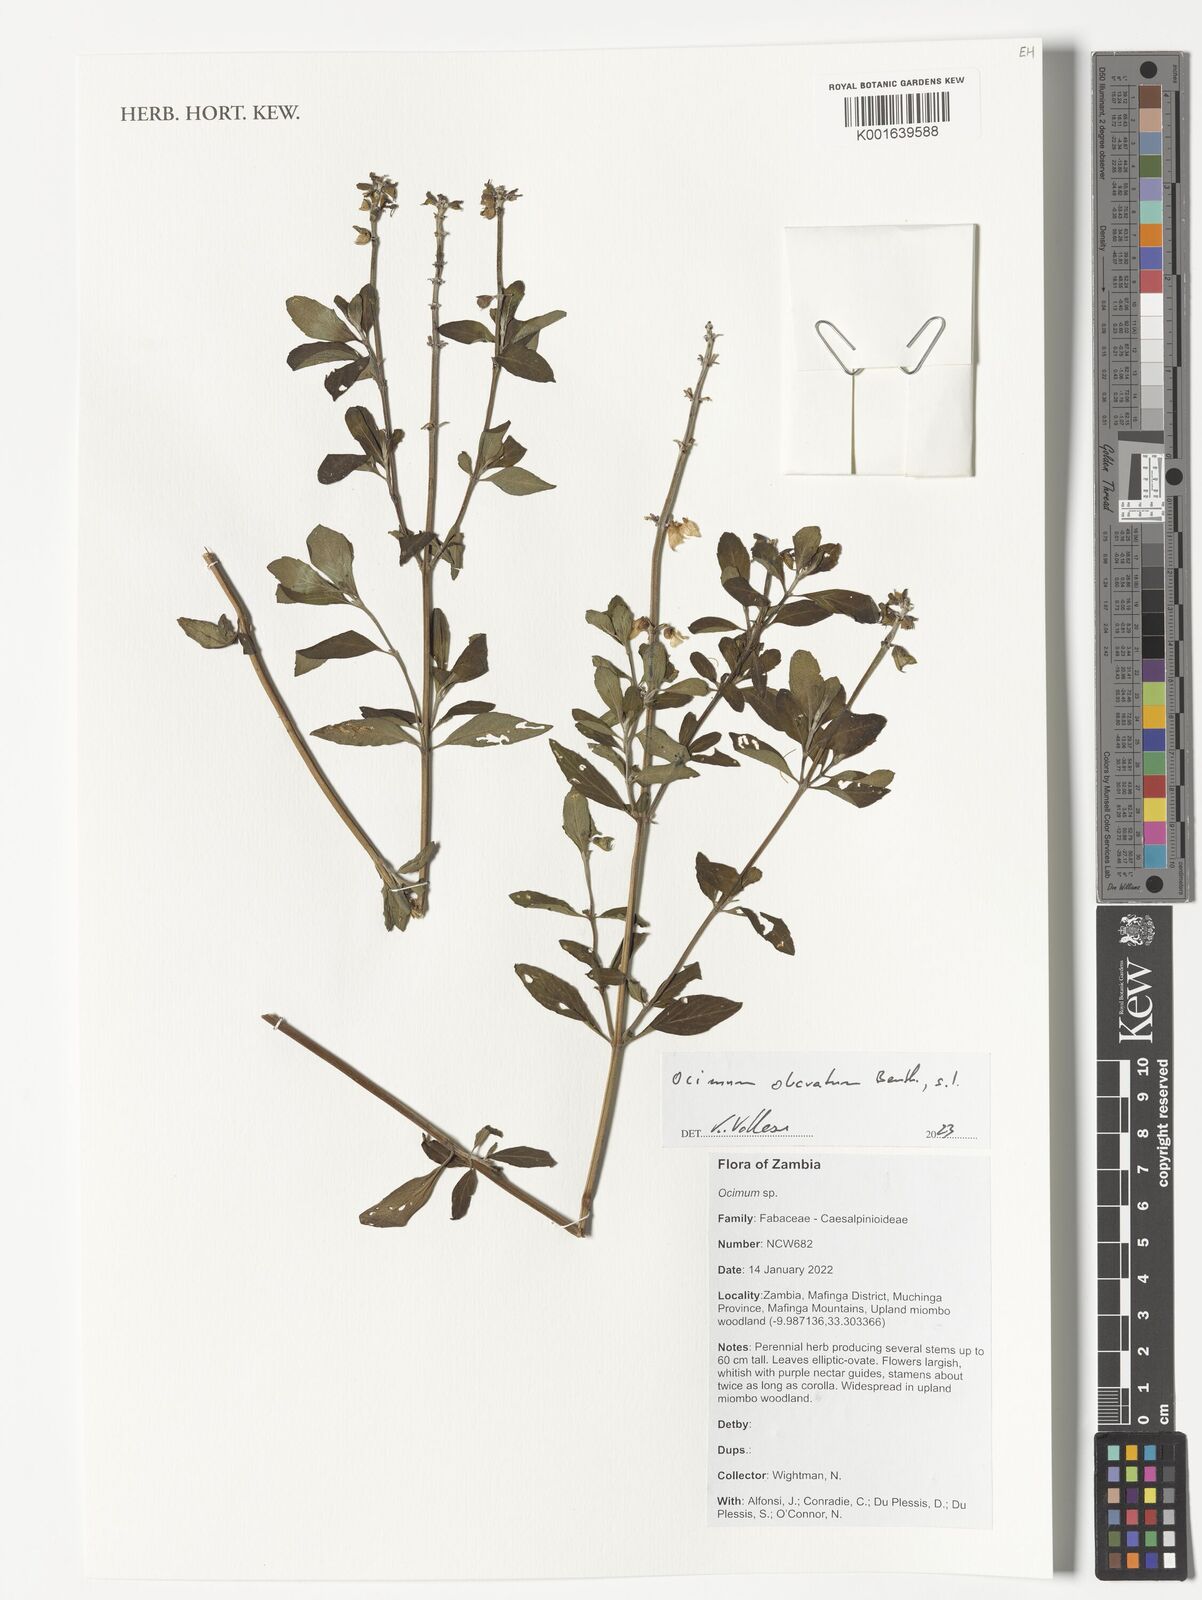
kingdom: Plantae
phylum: Tracheophyta
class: Magnoliopsida
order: Lamiales
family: Lamiaceae
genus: Ocimum
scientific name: Ocimum obovatum
